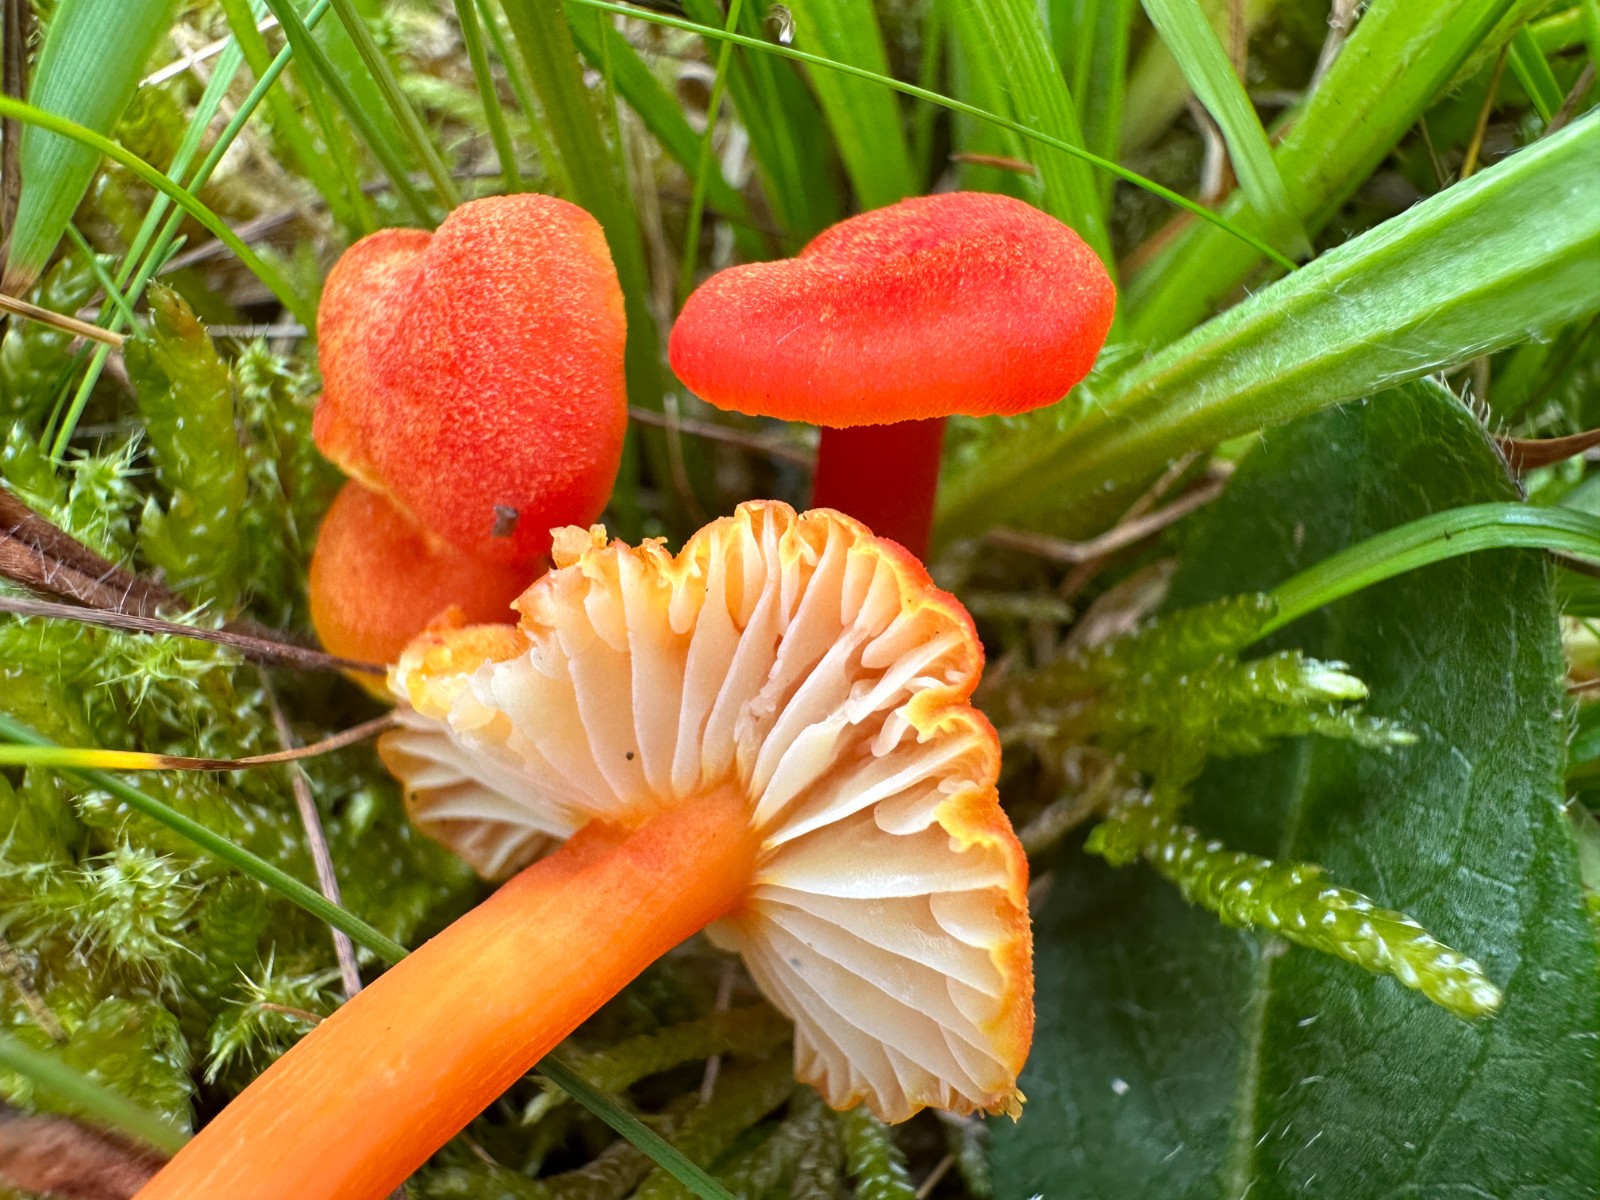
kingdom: Fungi
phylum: Basidiomycota
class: Agaricomycetes
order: Agaricales
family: Hygrophoraceae
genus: Hygrocybe
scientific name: Hygrocybe
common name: vokshat
